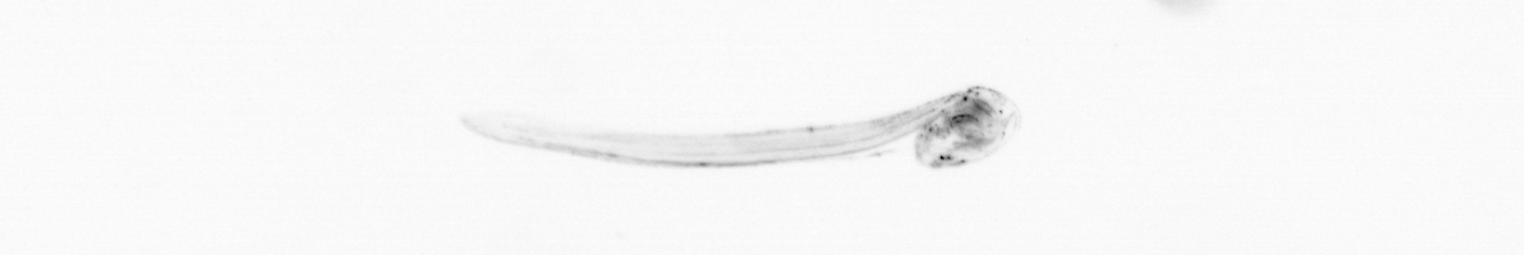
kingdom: Animalia
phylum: Chordata
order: Copelata
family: Fritillariidae
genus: Appendicularia
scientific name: Appendicularia
